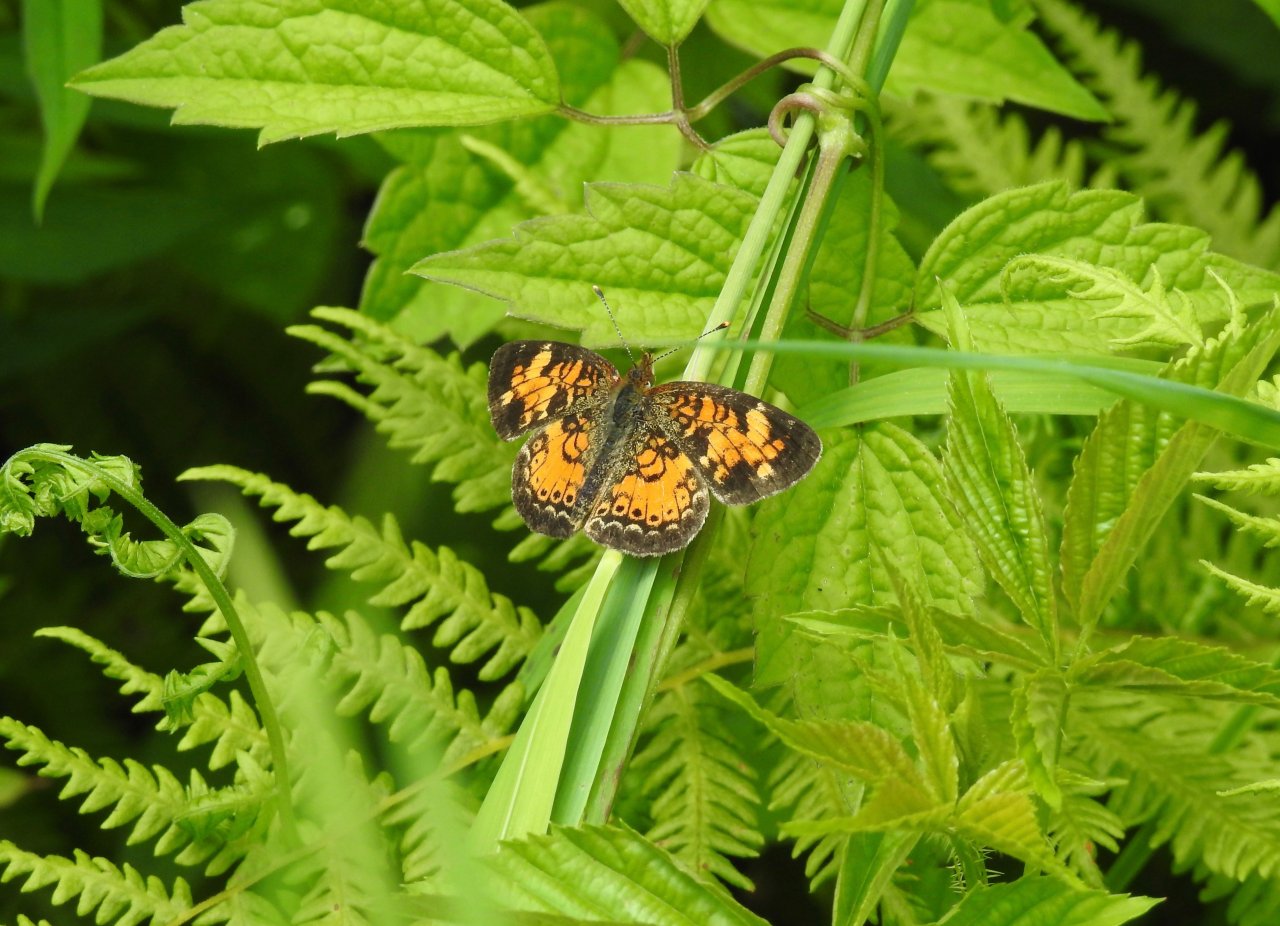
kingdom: Animalia
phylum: Arthropoda
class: Insecta
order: Lepidoptera
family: Nymphalidae
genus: Phyciodes
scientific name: Phyciodes tharos
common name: Northern Crescent
